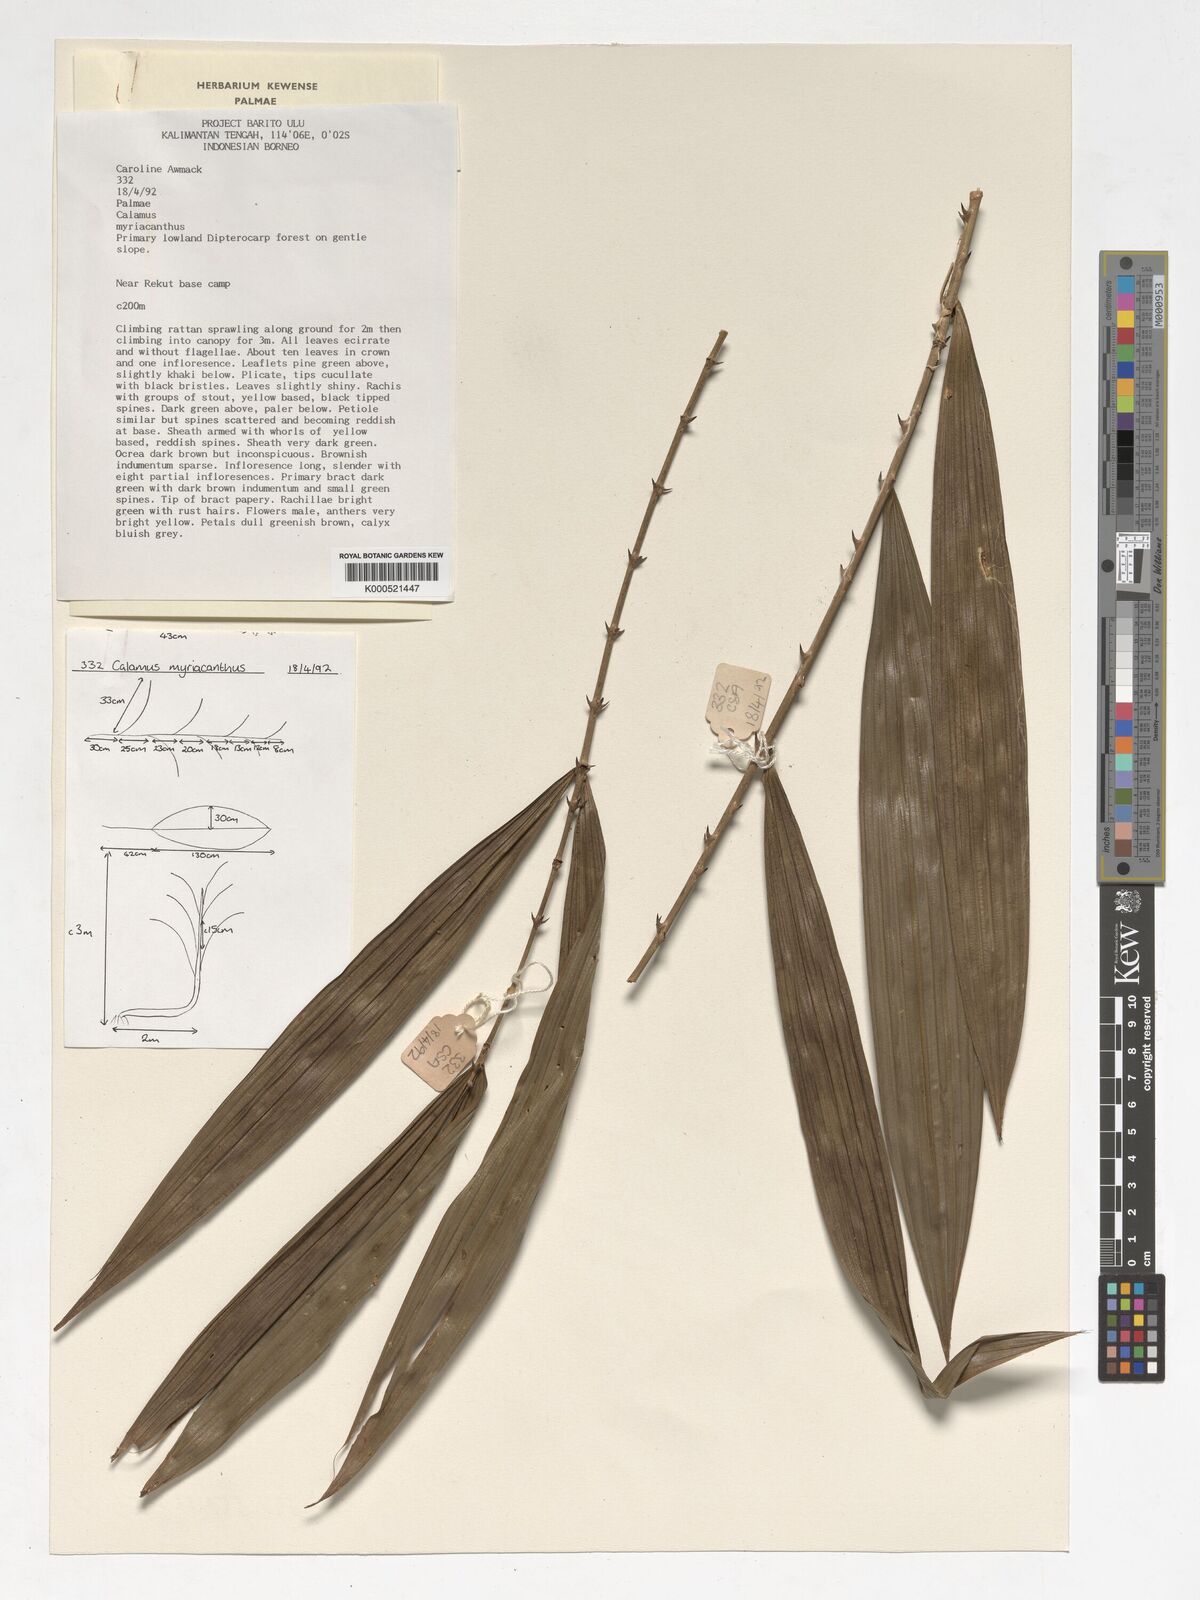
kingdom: Plantae
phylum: Tracheophyta
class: Liliopsida
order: Arecales
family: Arecaceae
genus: Calamus
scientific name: Calamus myriacanthus
